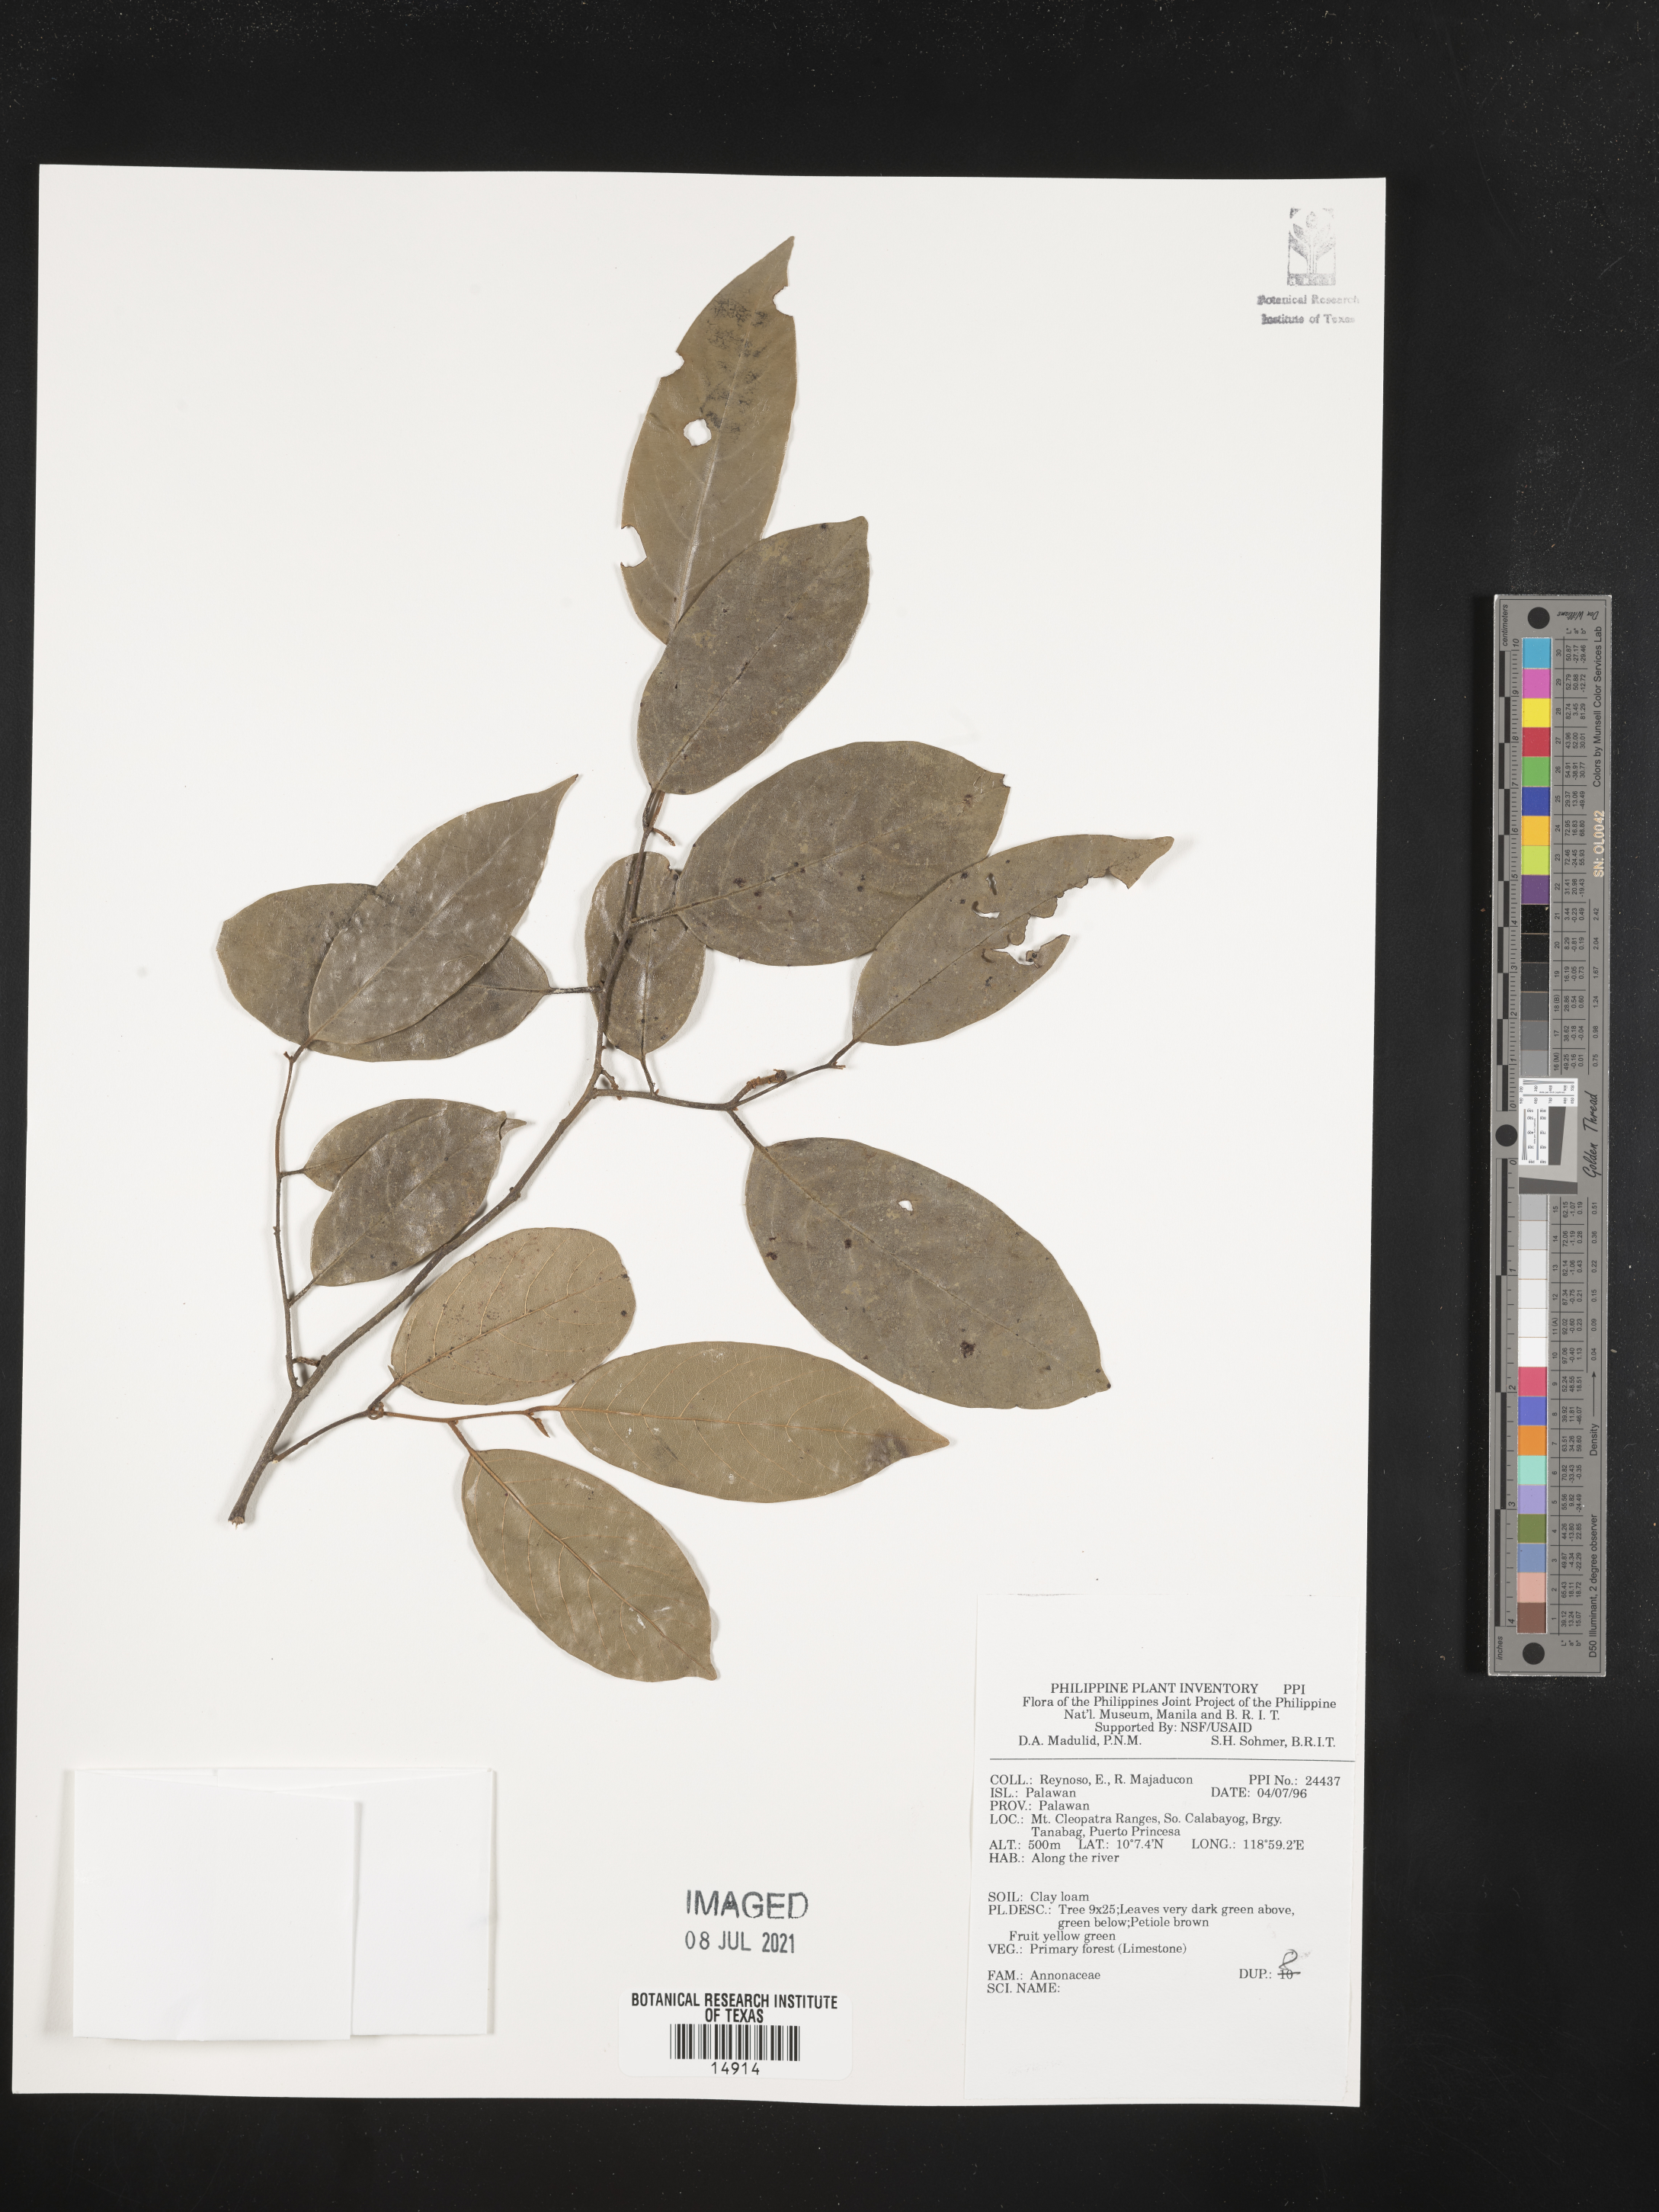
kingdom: Plantae
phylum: Tracheophyta
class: Magnoliopsida
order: Magnoliales
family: Annonaceae
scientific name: Annonaceae
